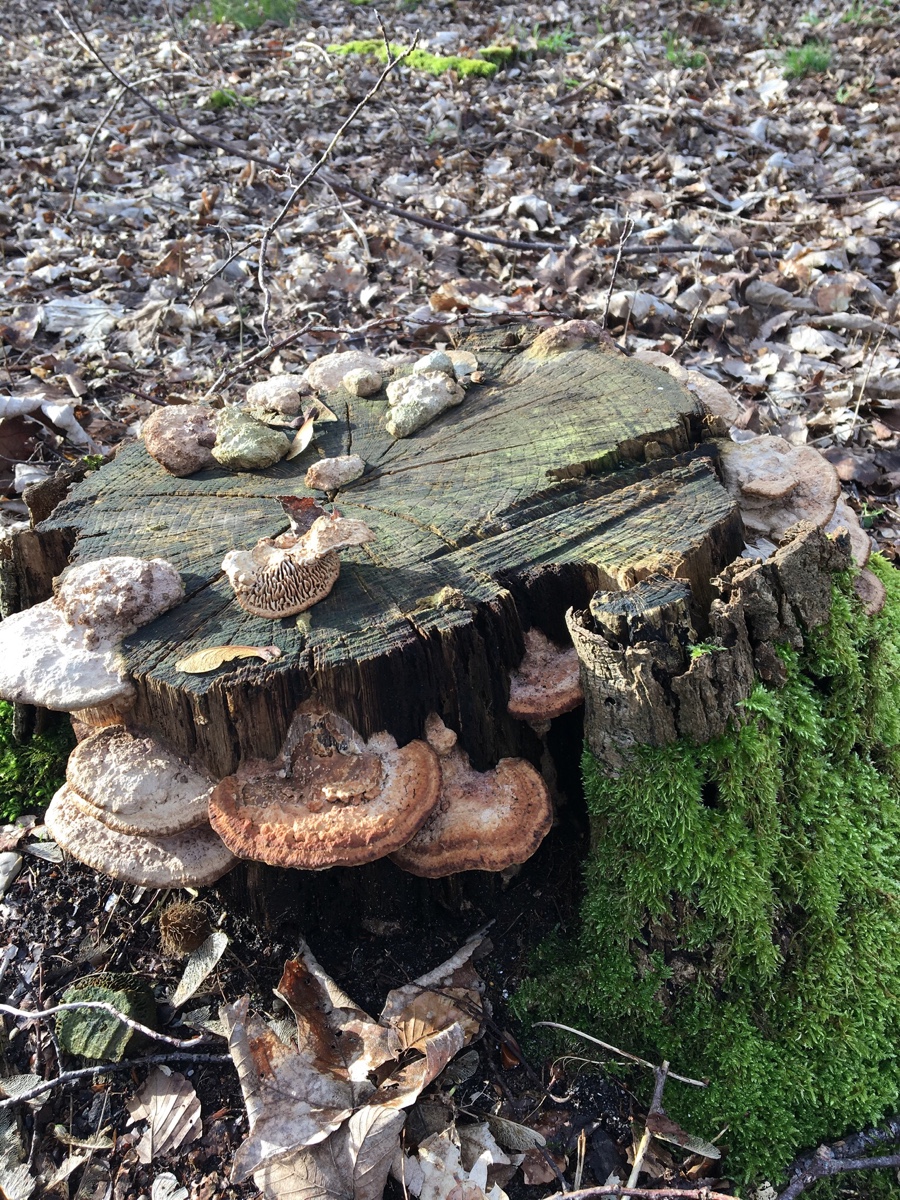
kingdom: Fungi
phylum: Basidiomycota
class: Agaricomycetes
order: Polyporales
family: Fomitopsidaceae
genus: Daedalea
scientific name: Daedalea quercina
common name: ege-labyrintsvamp
